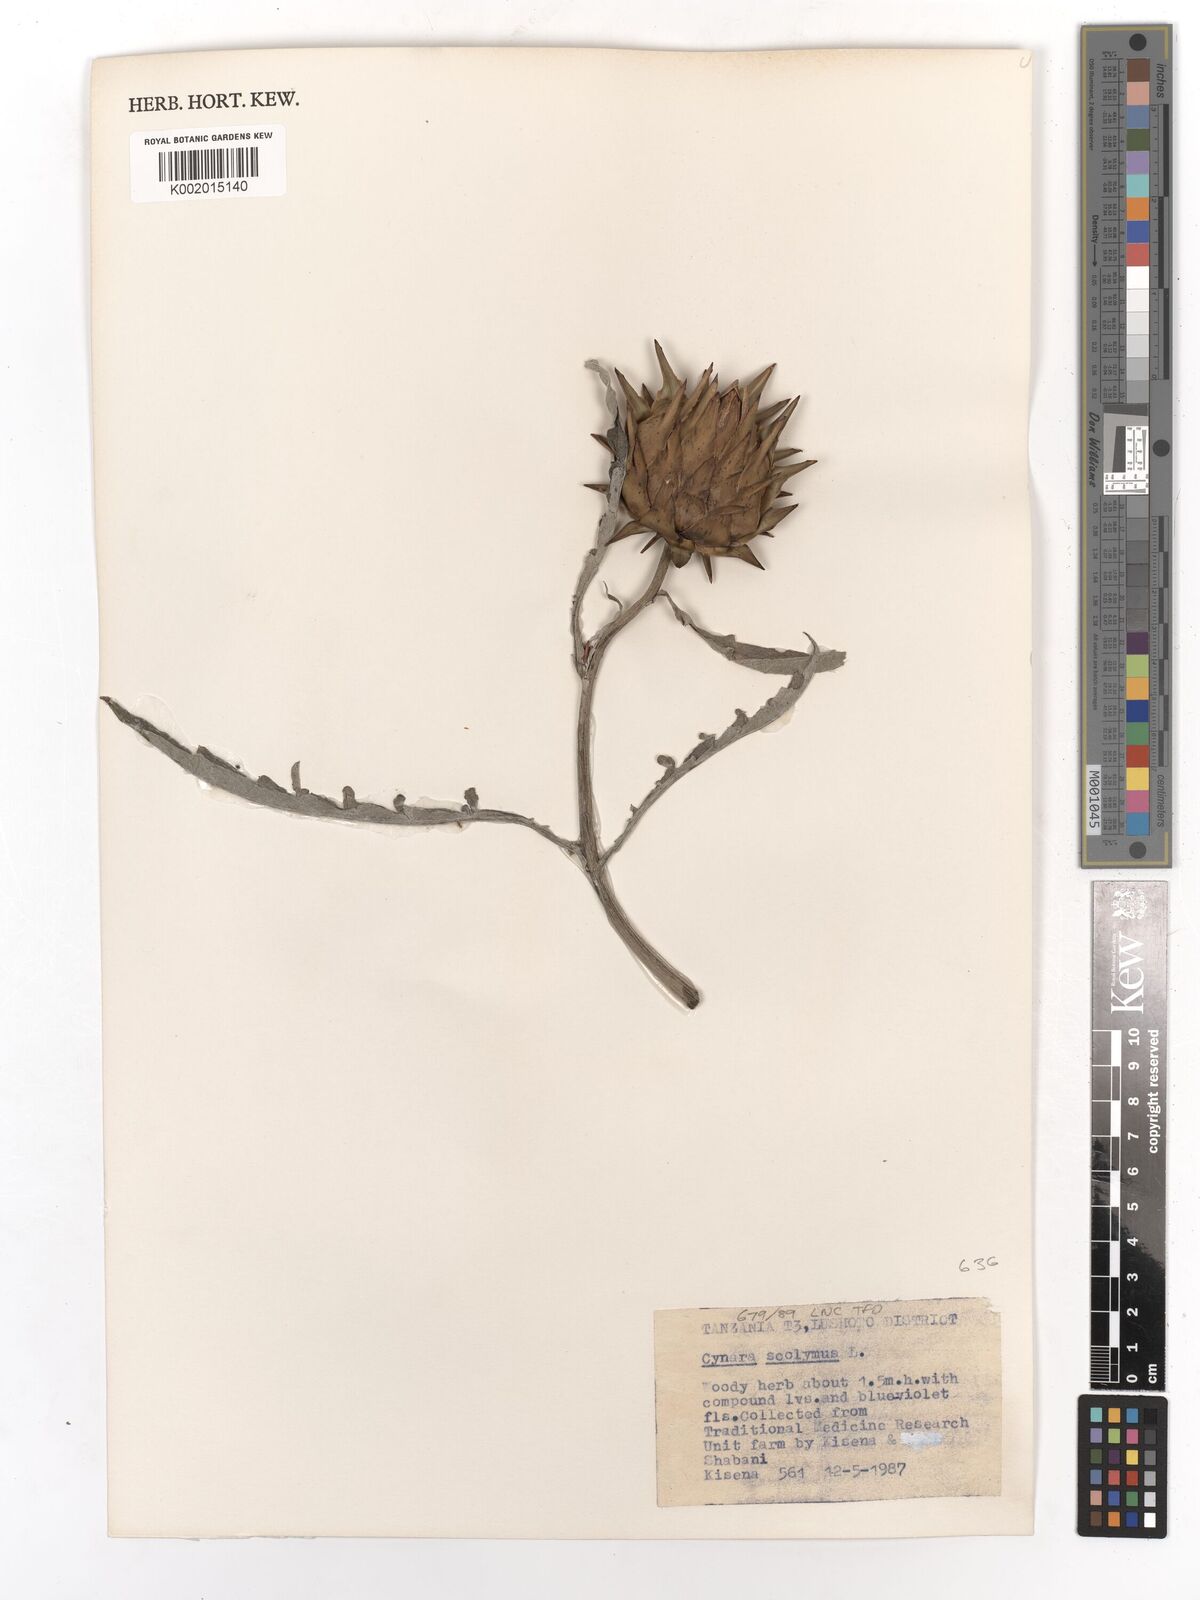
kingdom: Plantae
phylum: Tracheophyta
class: Magnoliopsida
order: Asterales
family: Asteraceae
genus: Cynara
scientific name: Cynara cardunculus
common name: Globe artichoke
